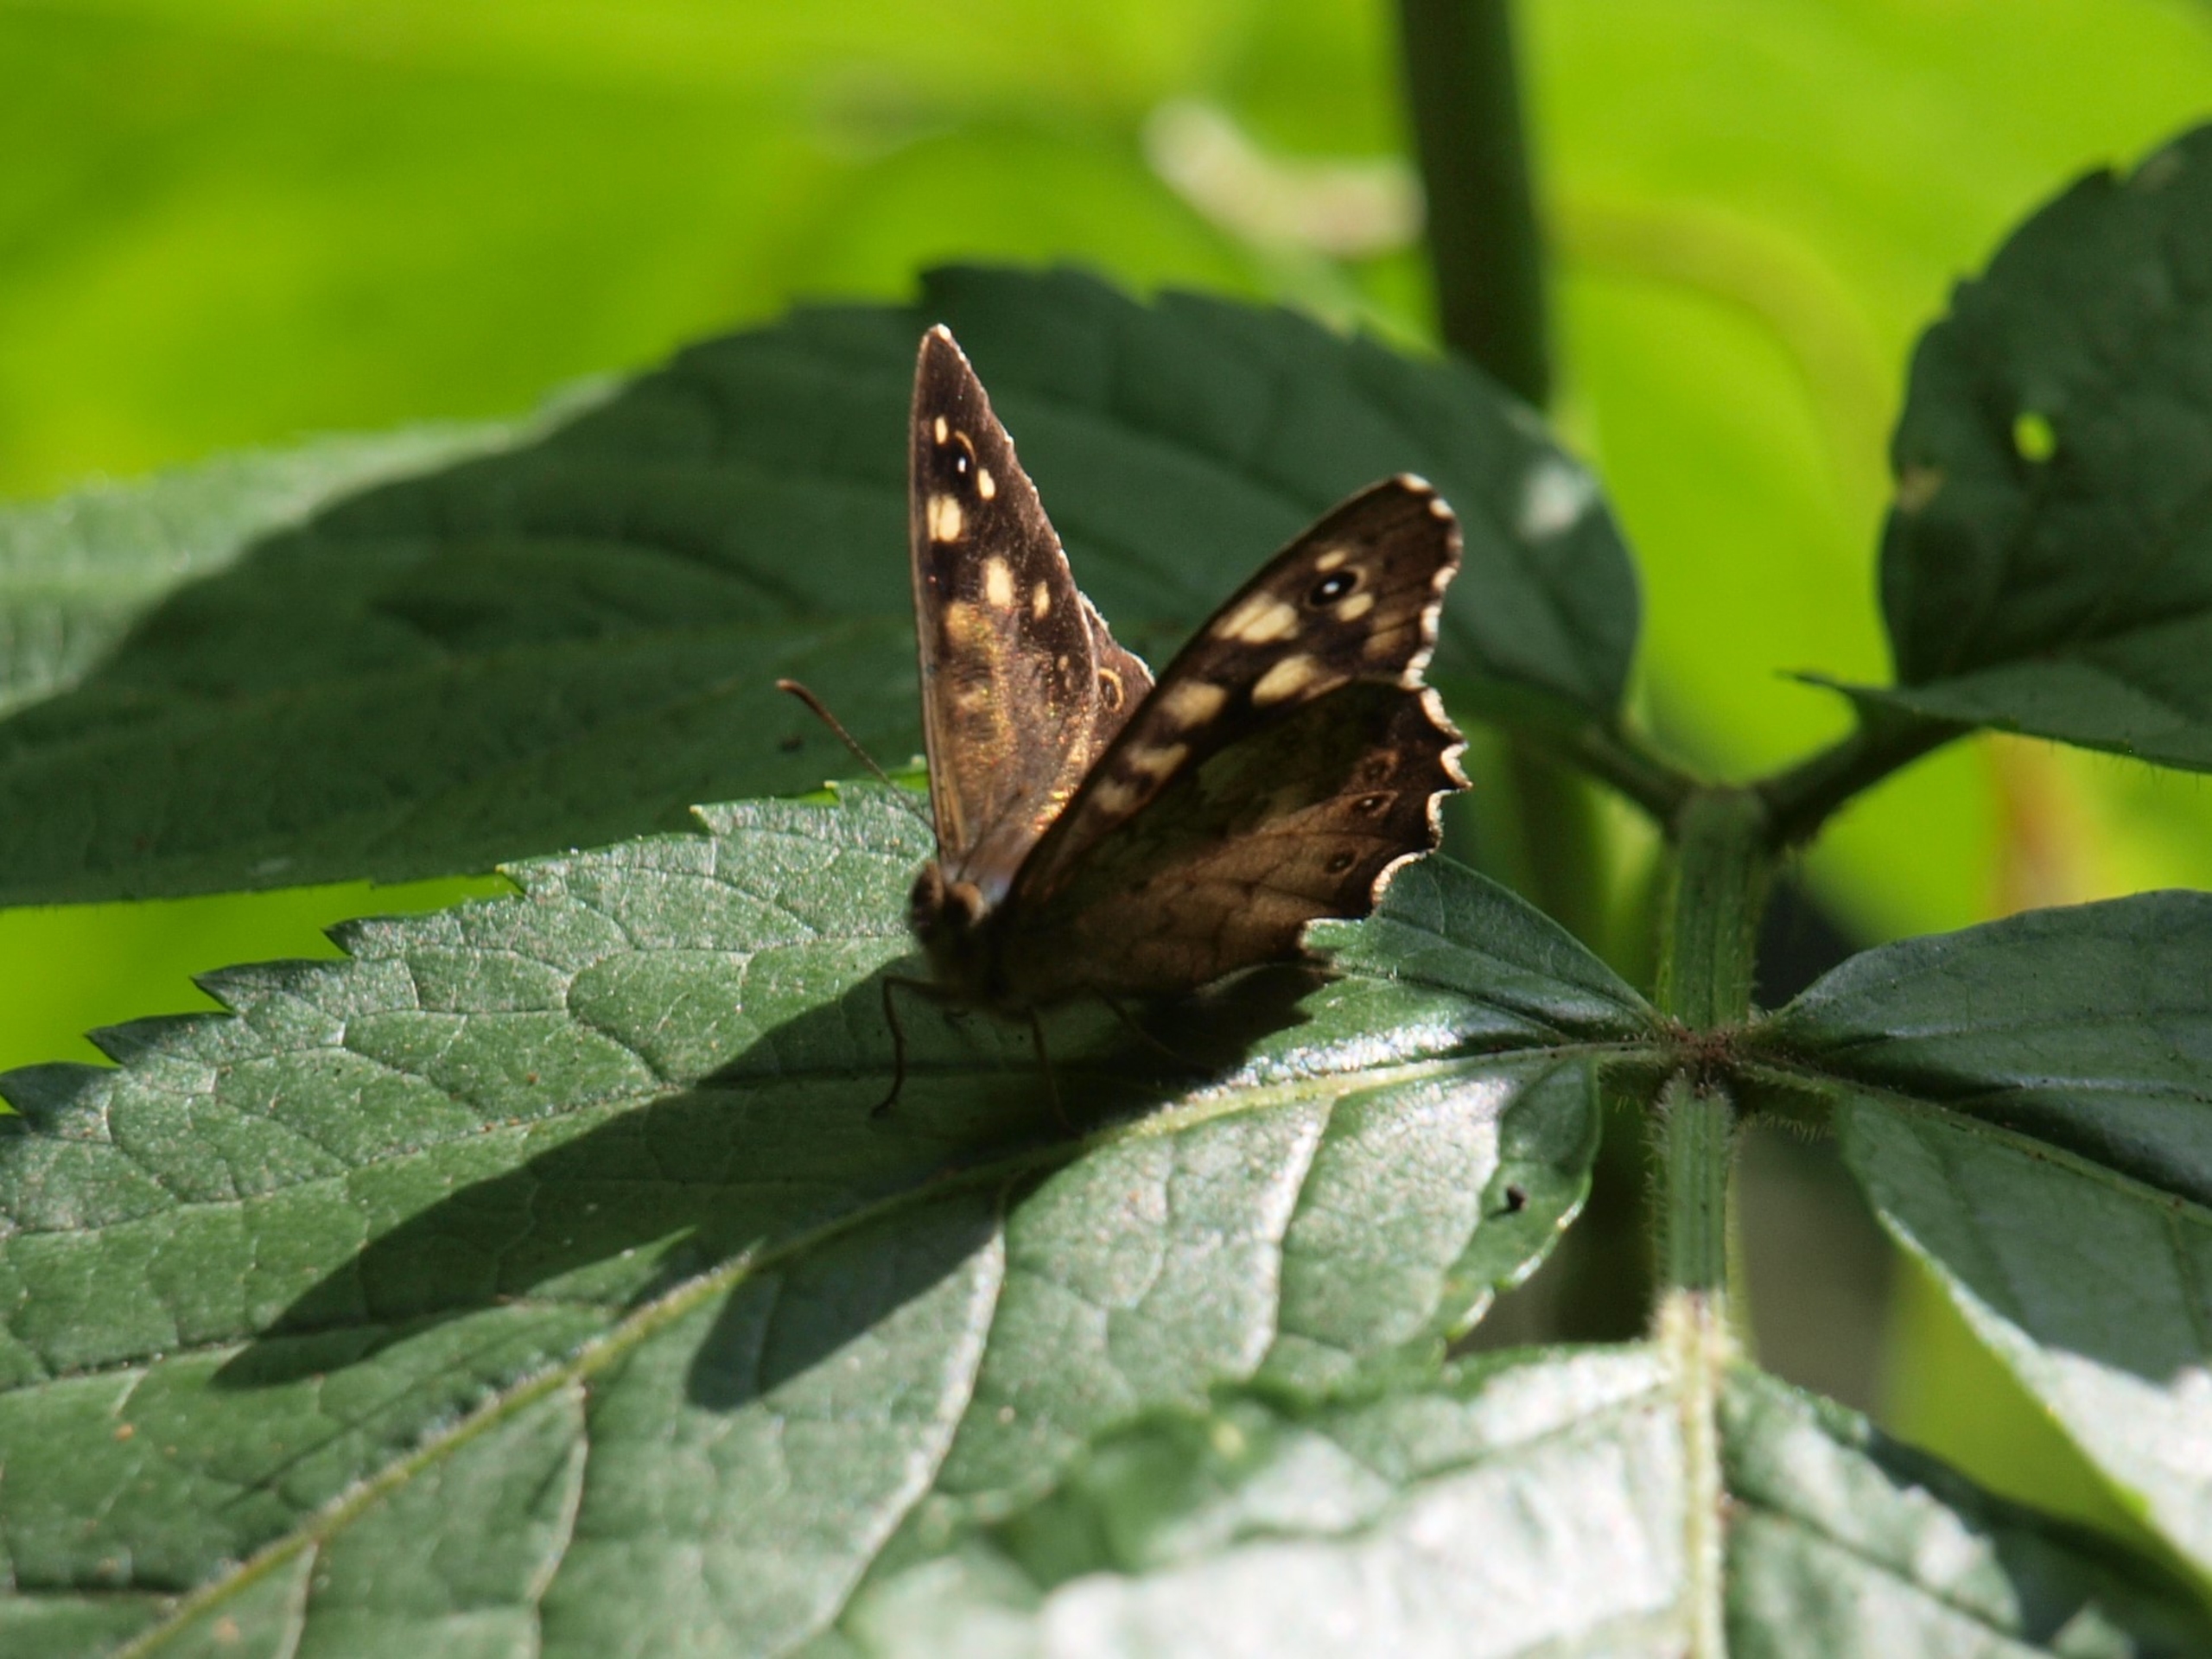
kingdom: Animalia
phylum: Arthropoda
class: Insecta
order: Lepidoptera
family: Nymphalidae
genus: Pararge
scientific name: Pararge aegeria
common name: Skovrandøje
